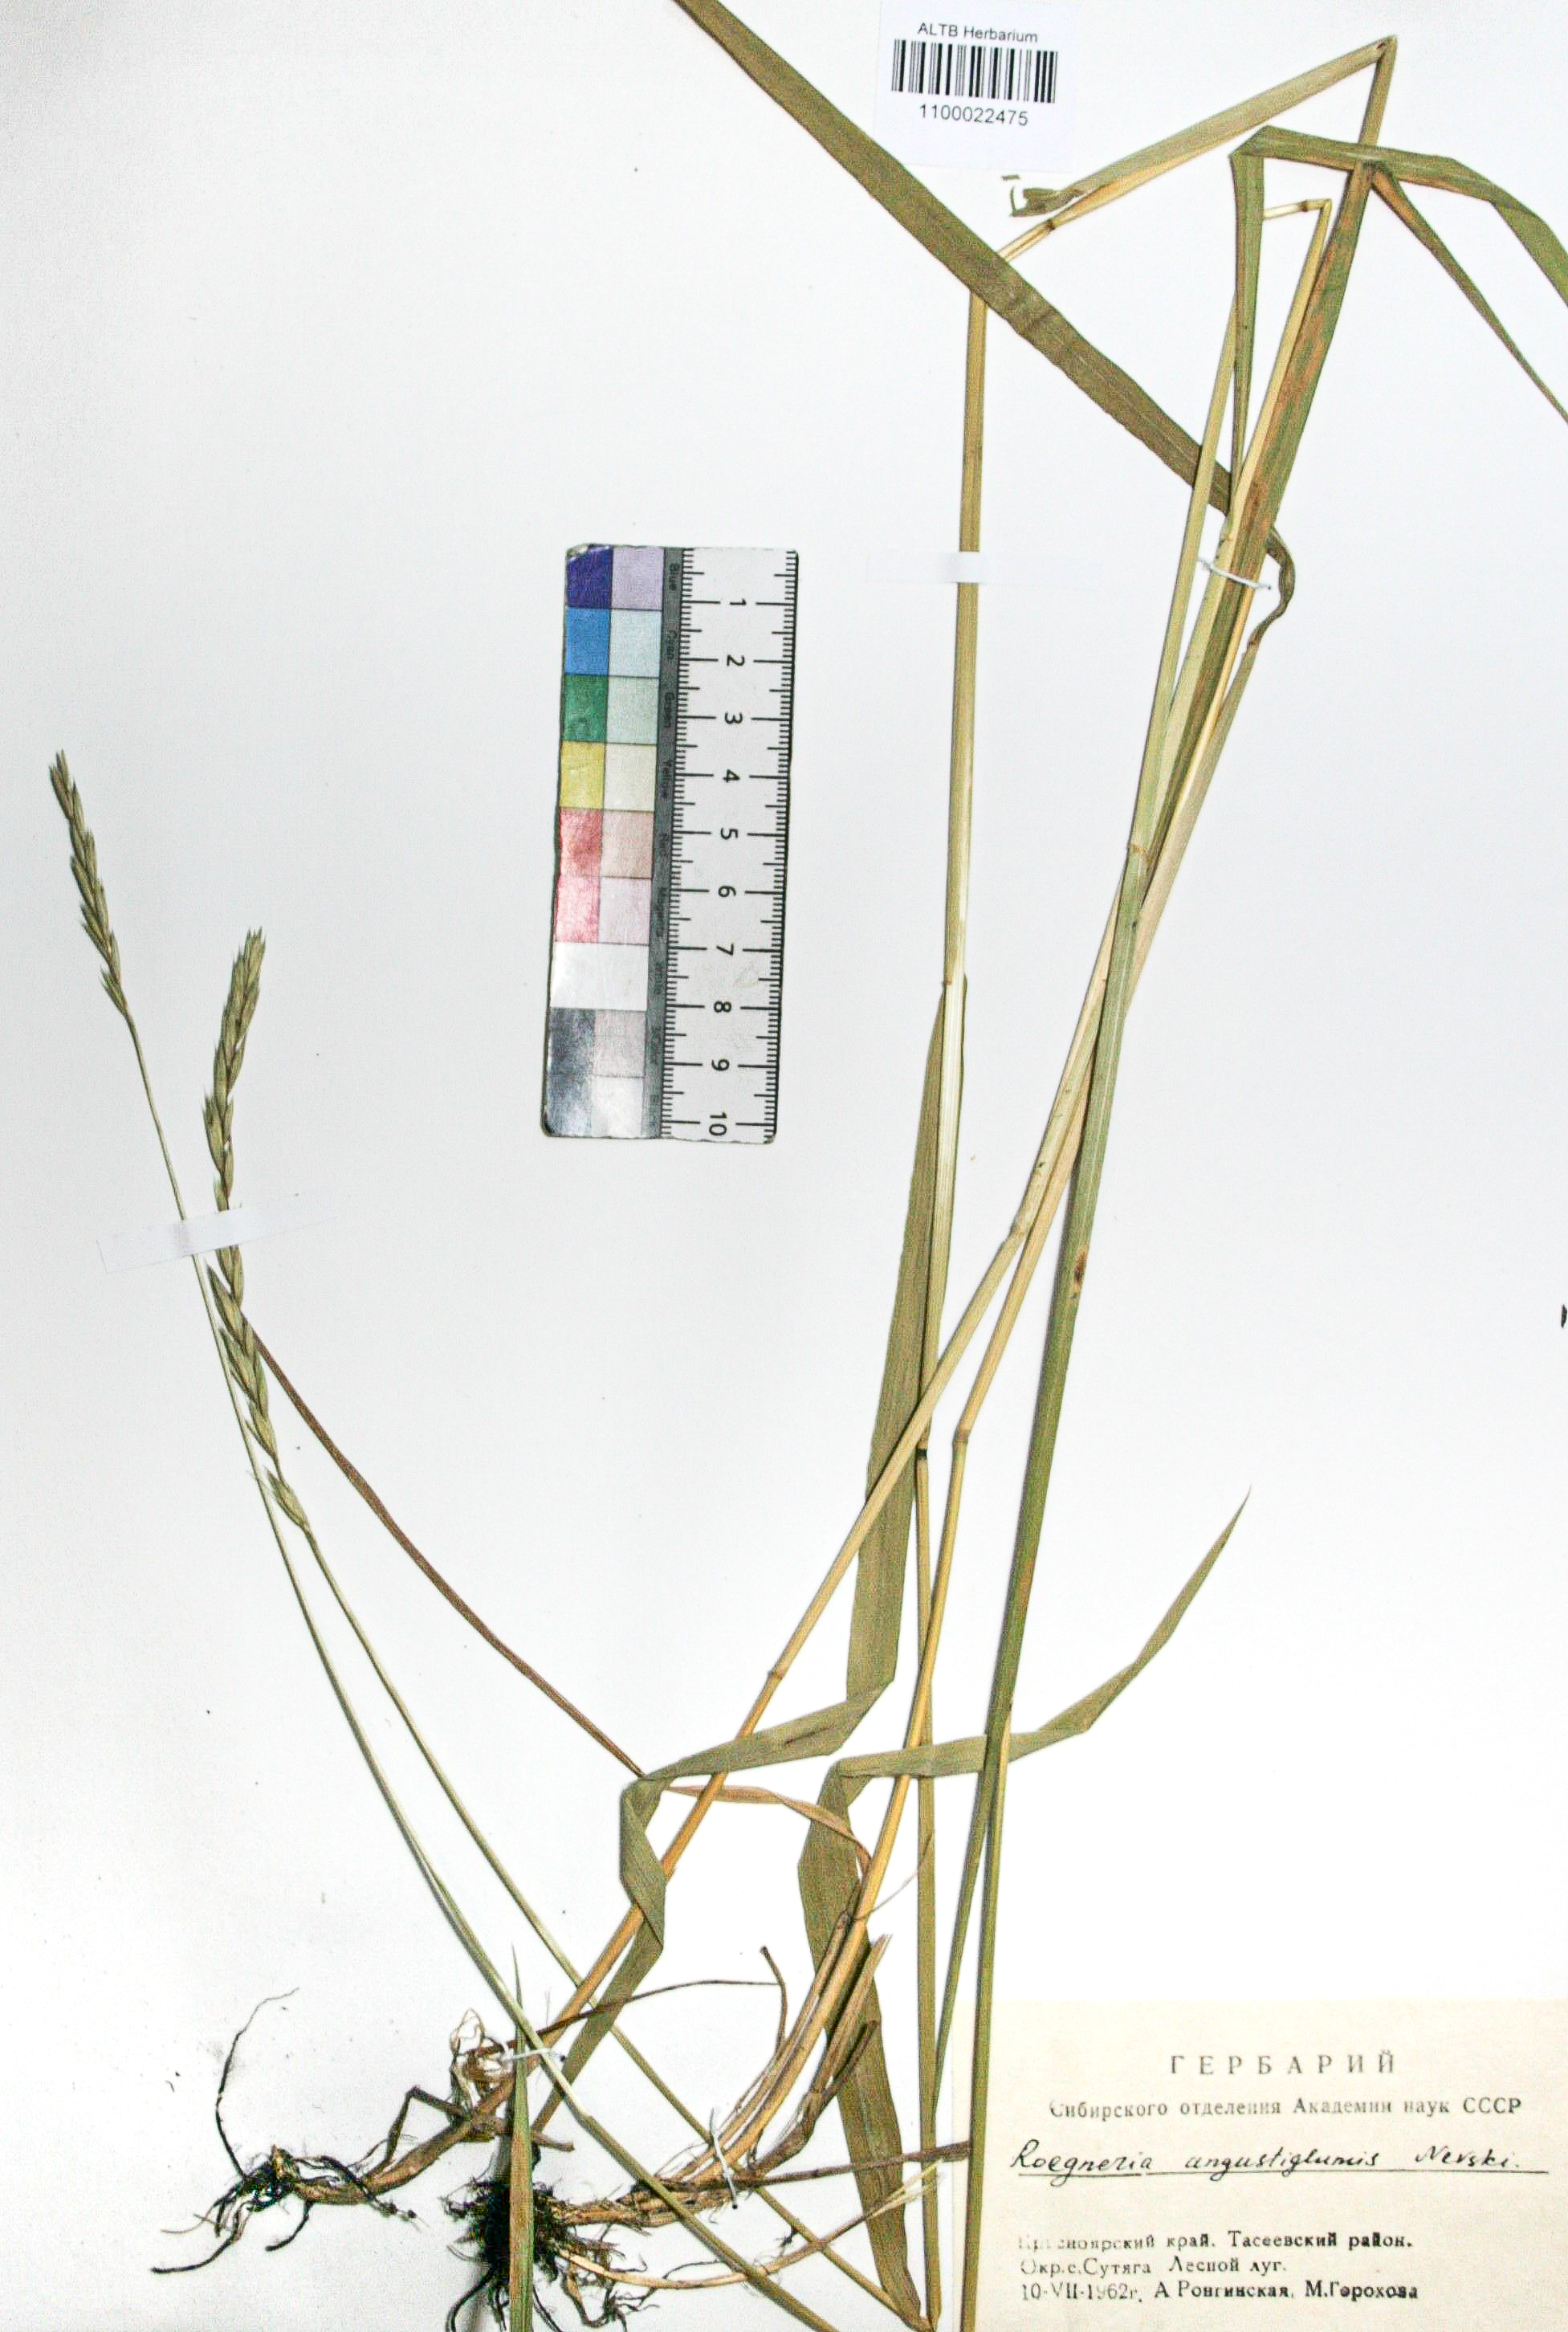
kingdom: Plantae
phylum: Tracheophyta
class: Liliopsida
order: Poales
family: Poaceae
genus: Elymus
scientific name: Elymus violaceus
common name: Arctic wheatgrass
